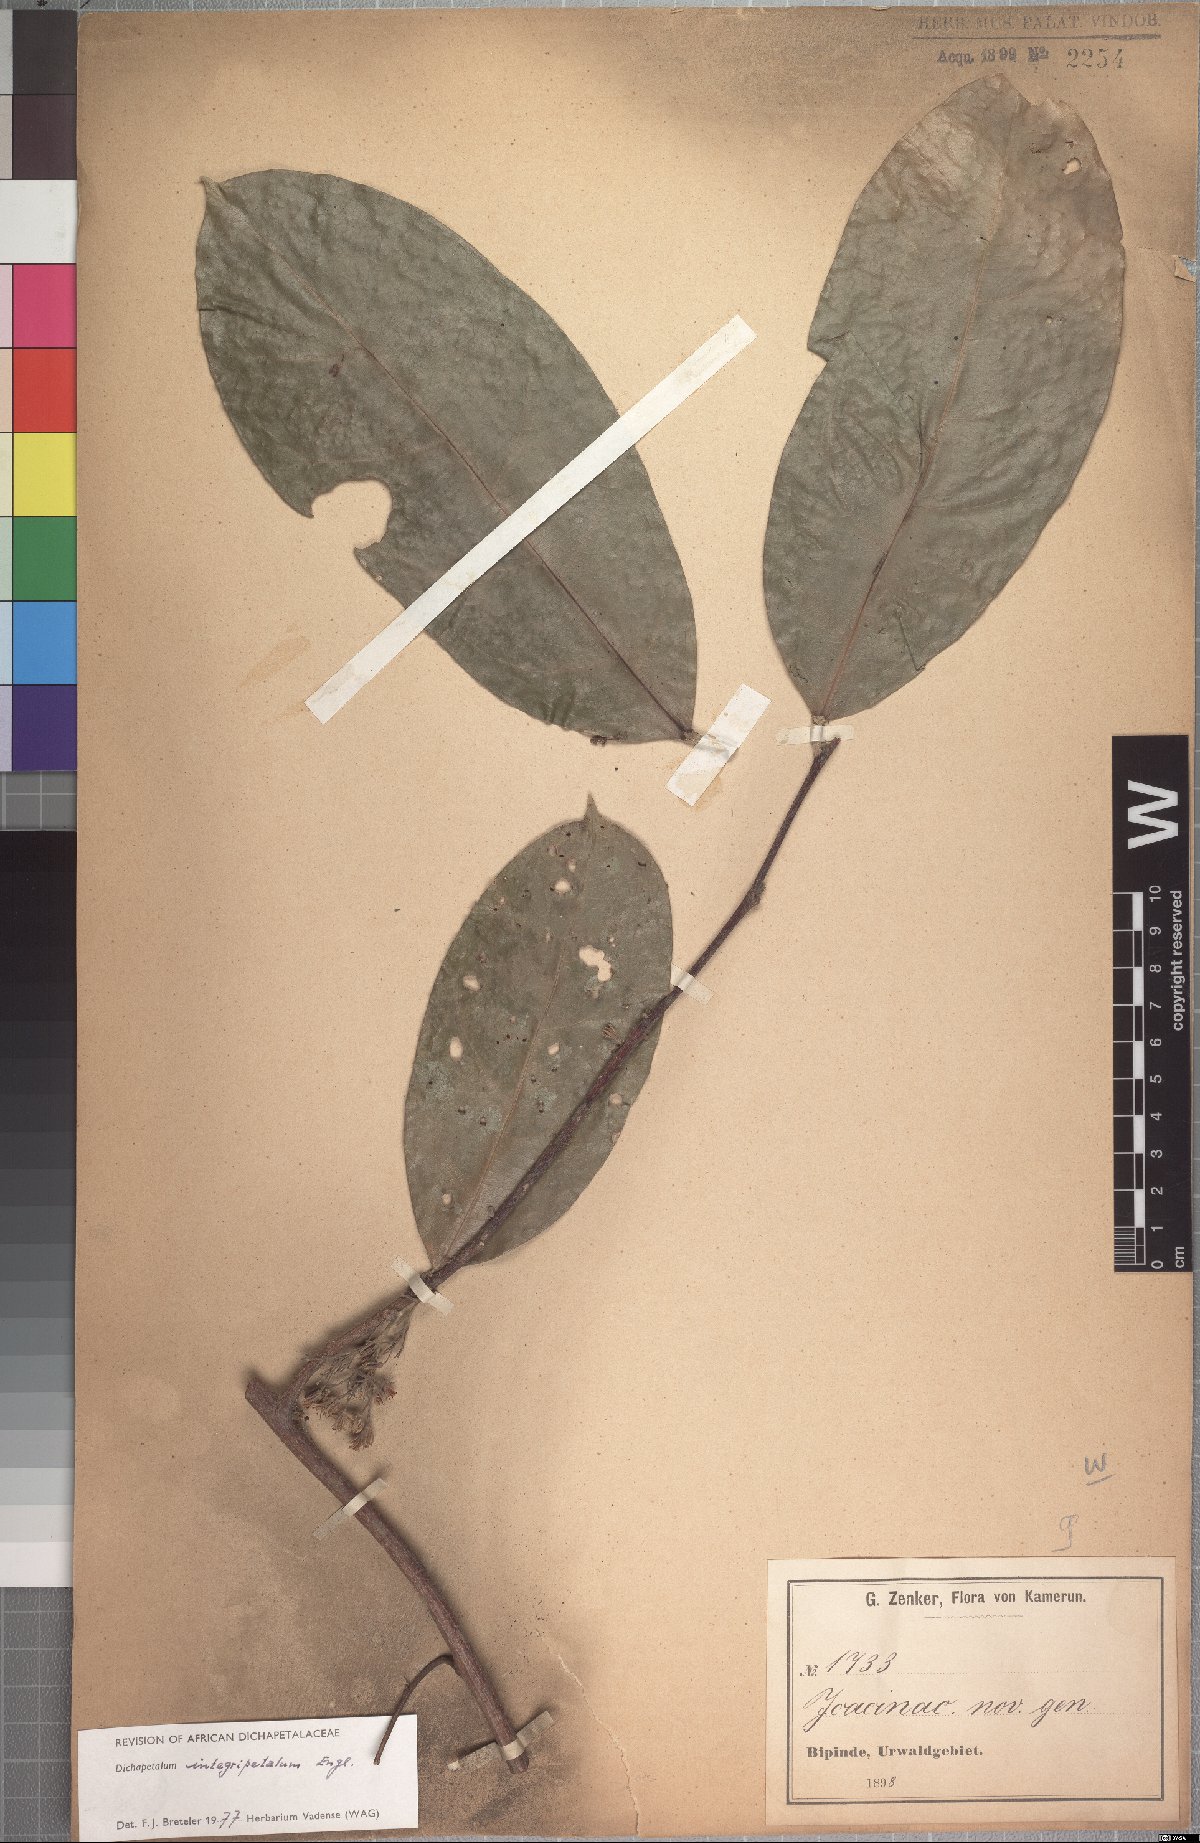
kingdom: Plantae
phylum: Tracheophyta
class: Magnoliopsida
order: Malpighiales
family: Dichapetalaceae
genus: Dichapetalum
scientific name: Dichapetalum integripetalum
